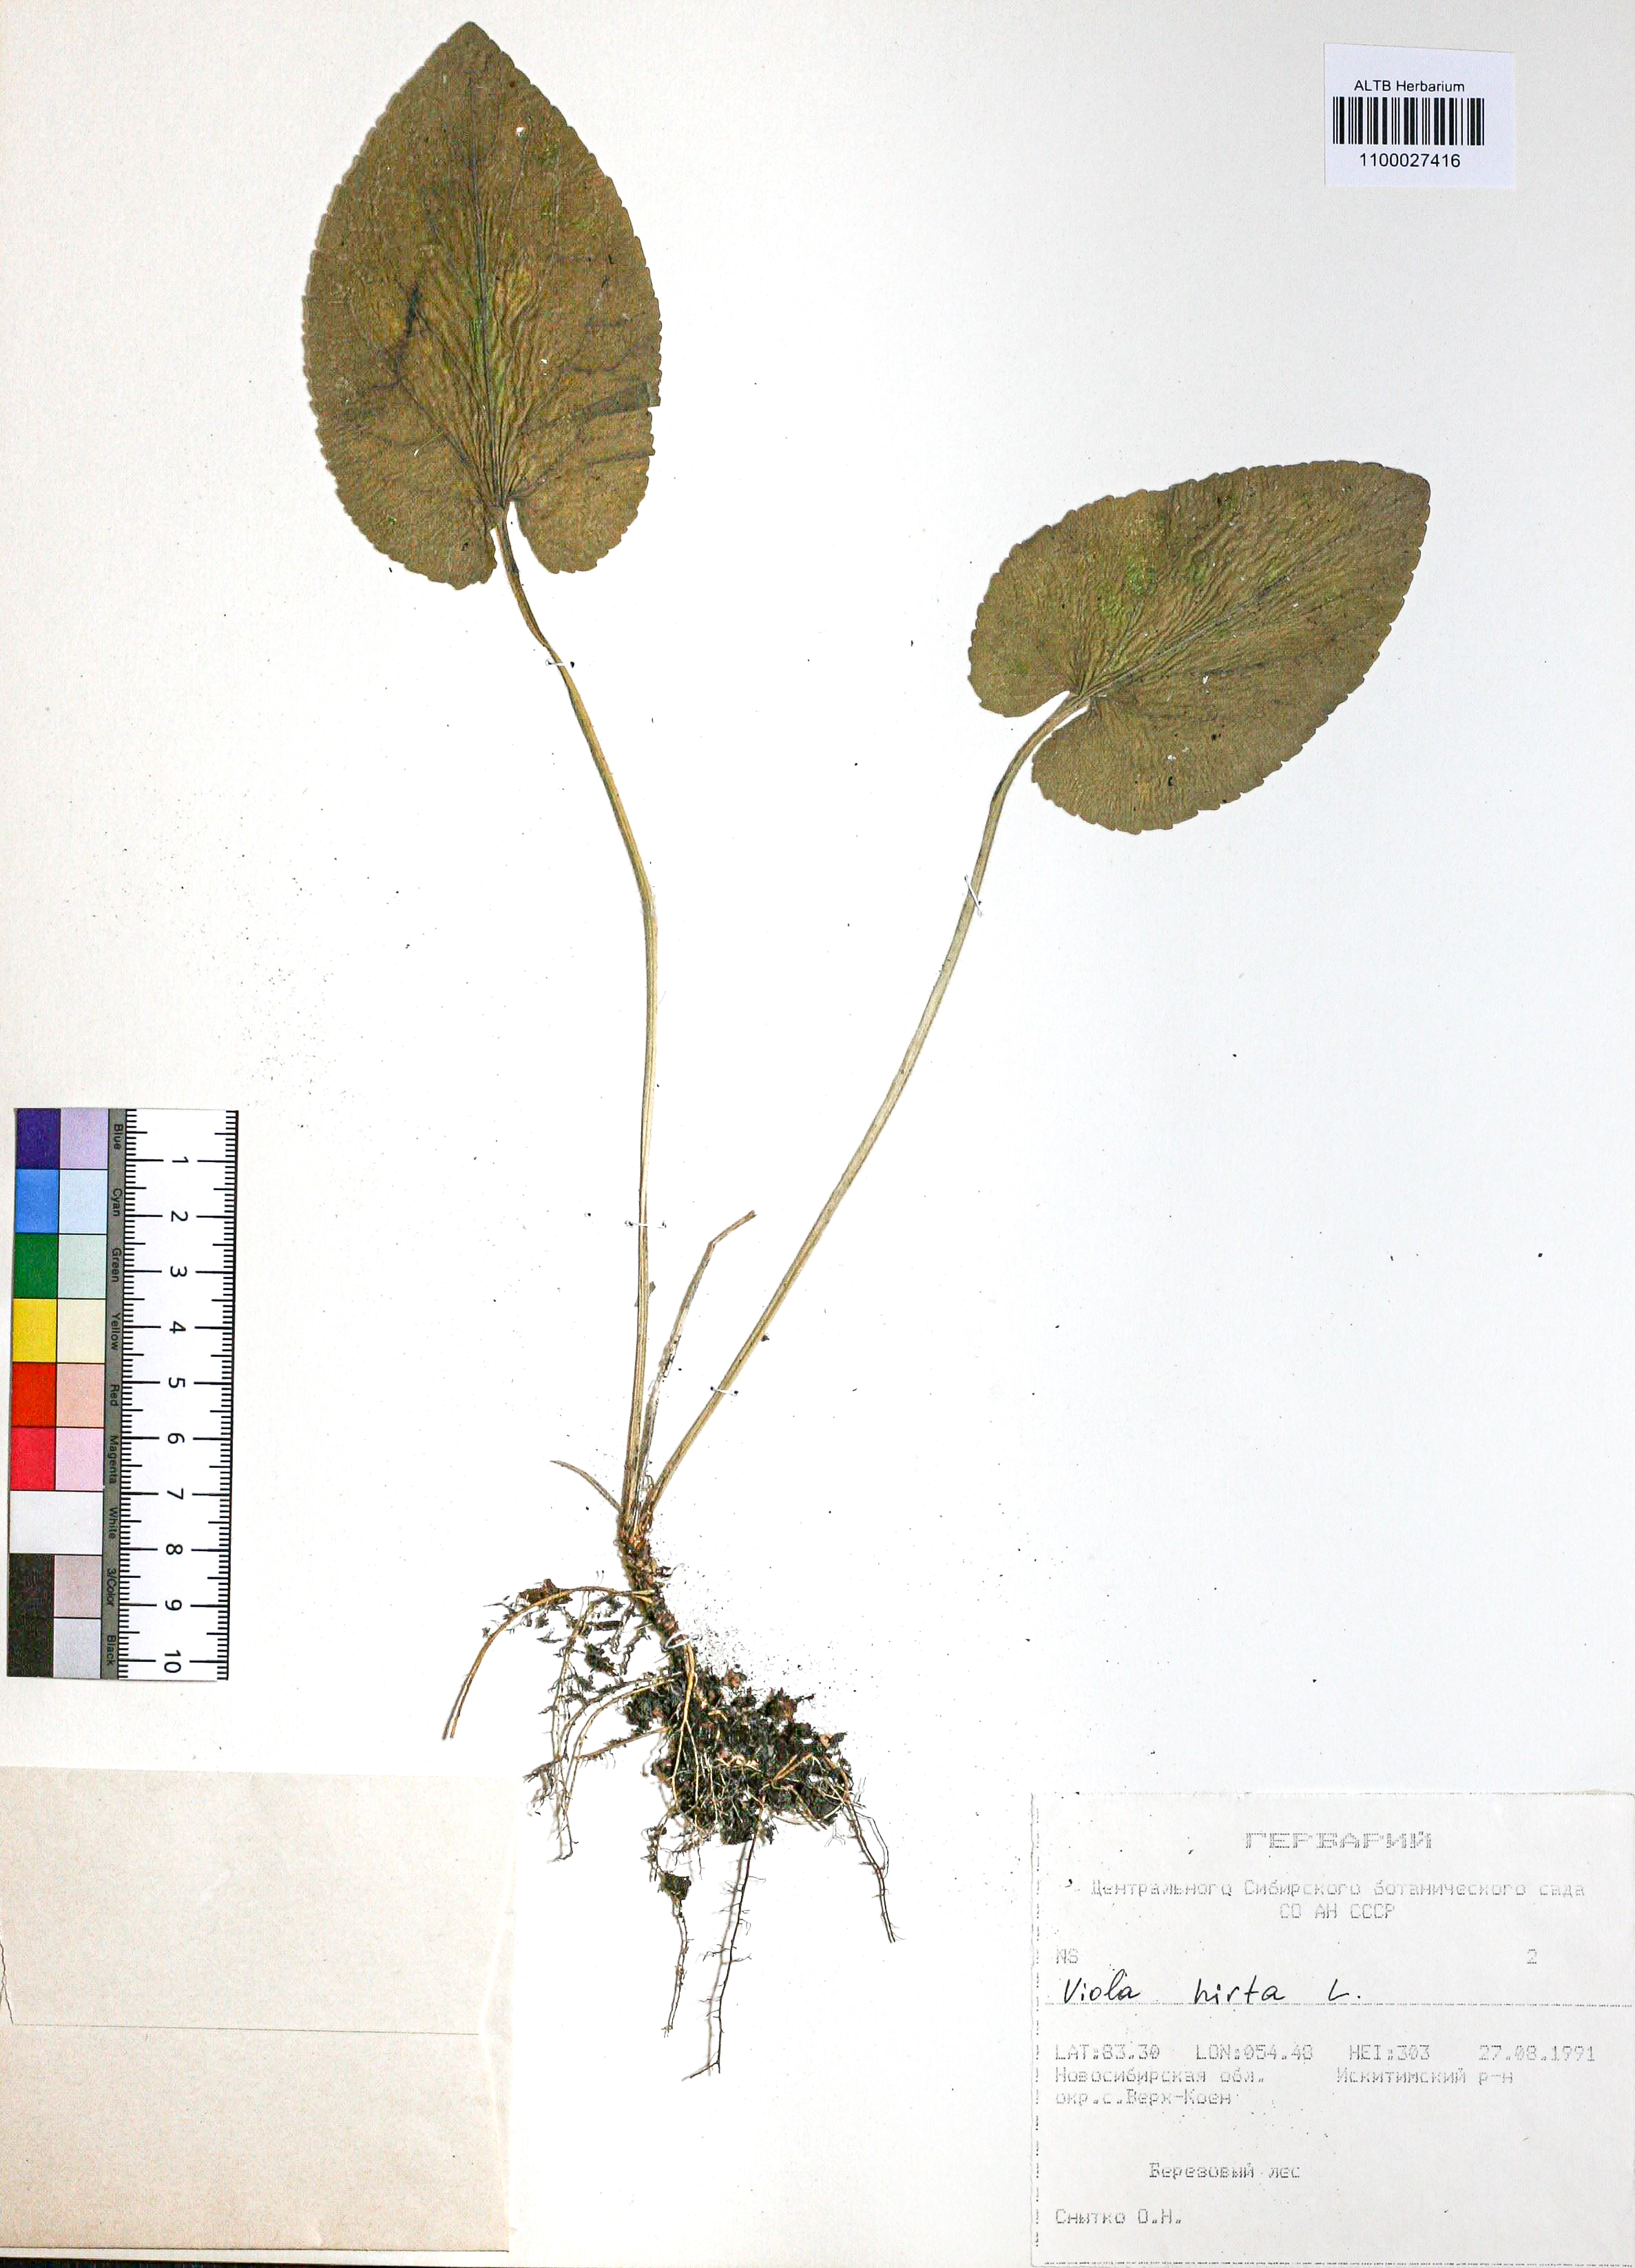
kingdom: Plantae
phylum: Tracheophyta
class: Magnoliopsida
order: Malpighiales
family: Violaceae
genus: Viola
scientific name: Viola hirta
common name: Hairy violet
